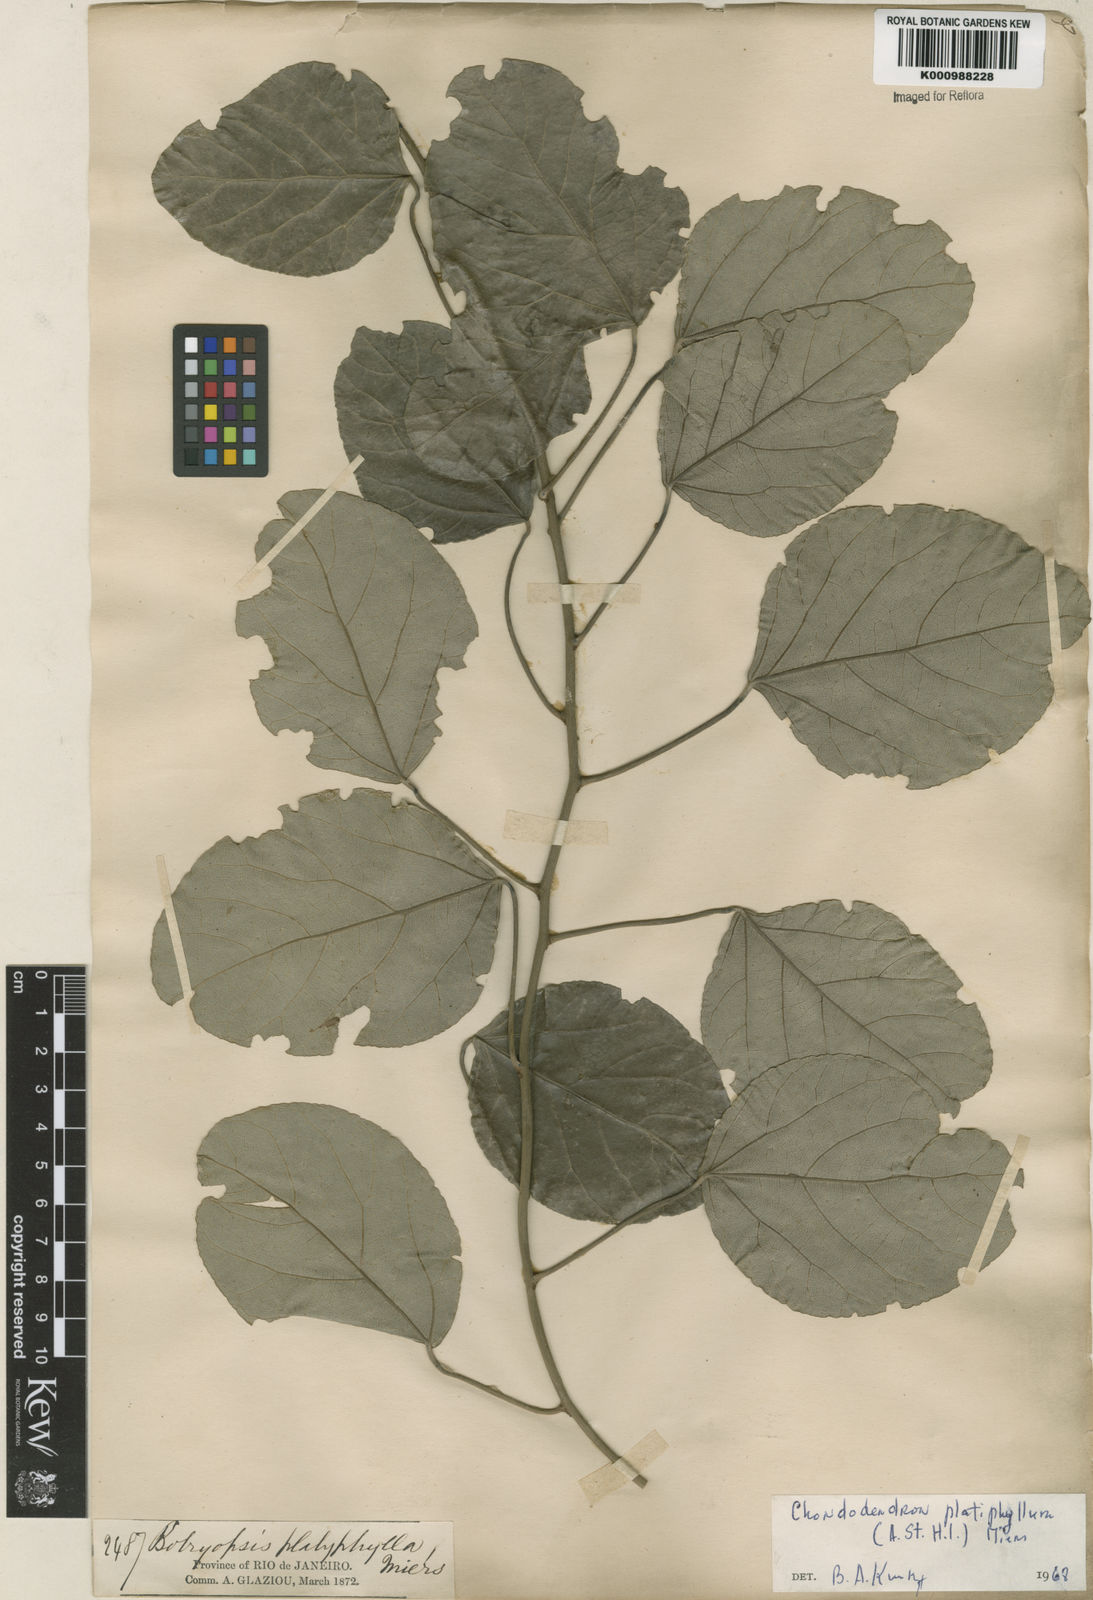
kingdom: Plantae
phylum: Tracheophyta
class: Magnoliopsida
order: Ranunculales
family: Menispermaceae
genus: Chondrodendron
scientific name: Chondrodendron platyphyllum
